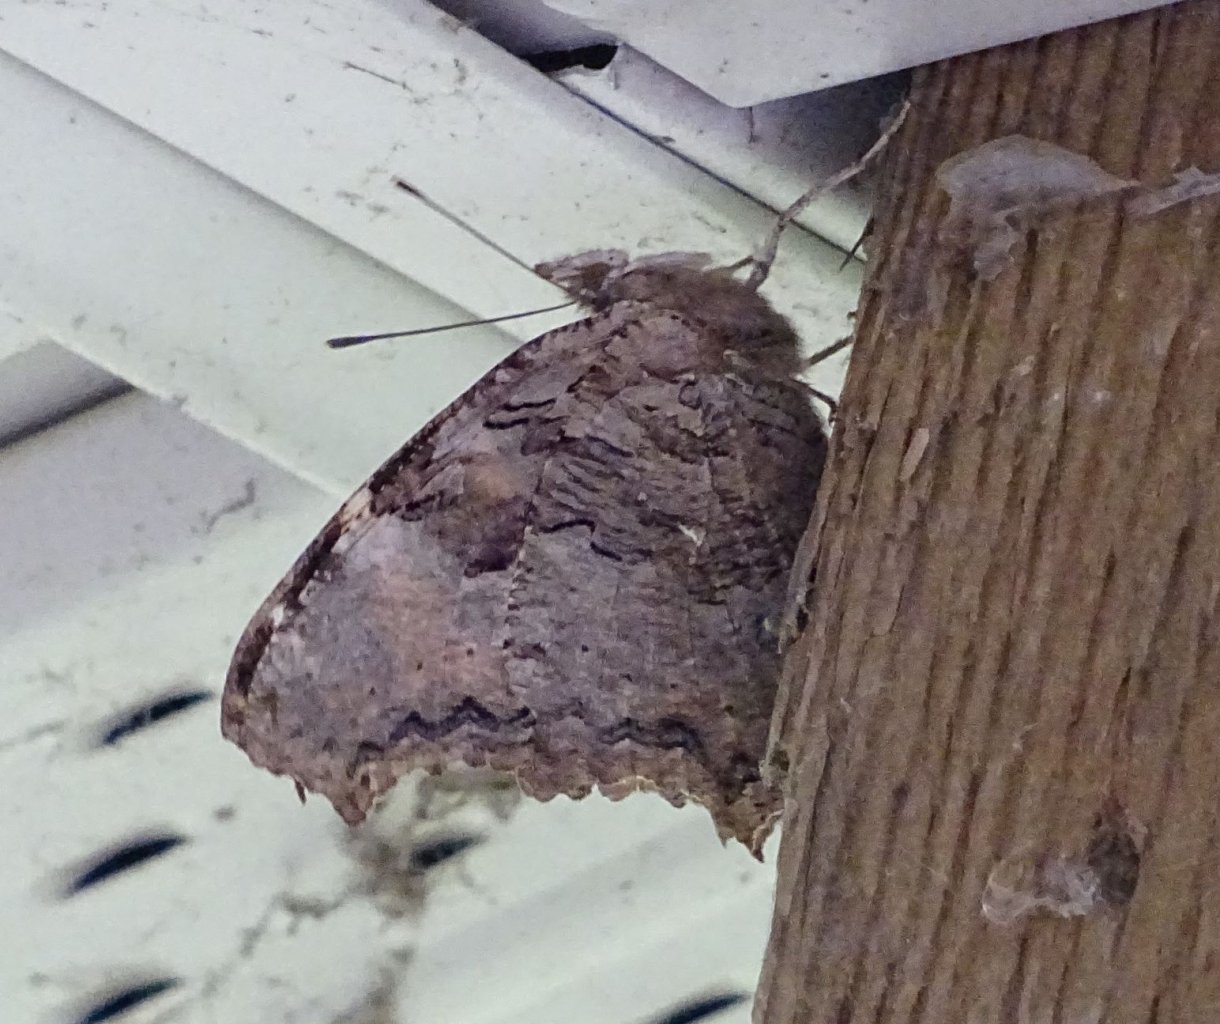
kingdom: Animalia
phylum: Arthropoda
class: Insecta
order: Lepidoptera
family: Nymphalidae
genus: Polygonia
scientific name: Polygonia vaualbum
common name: Compton Tortoiseshell
